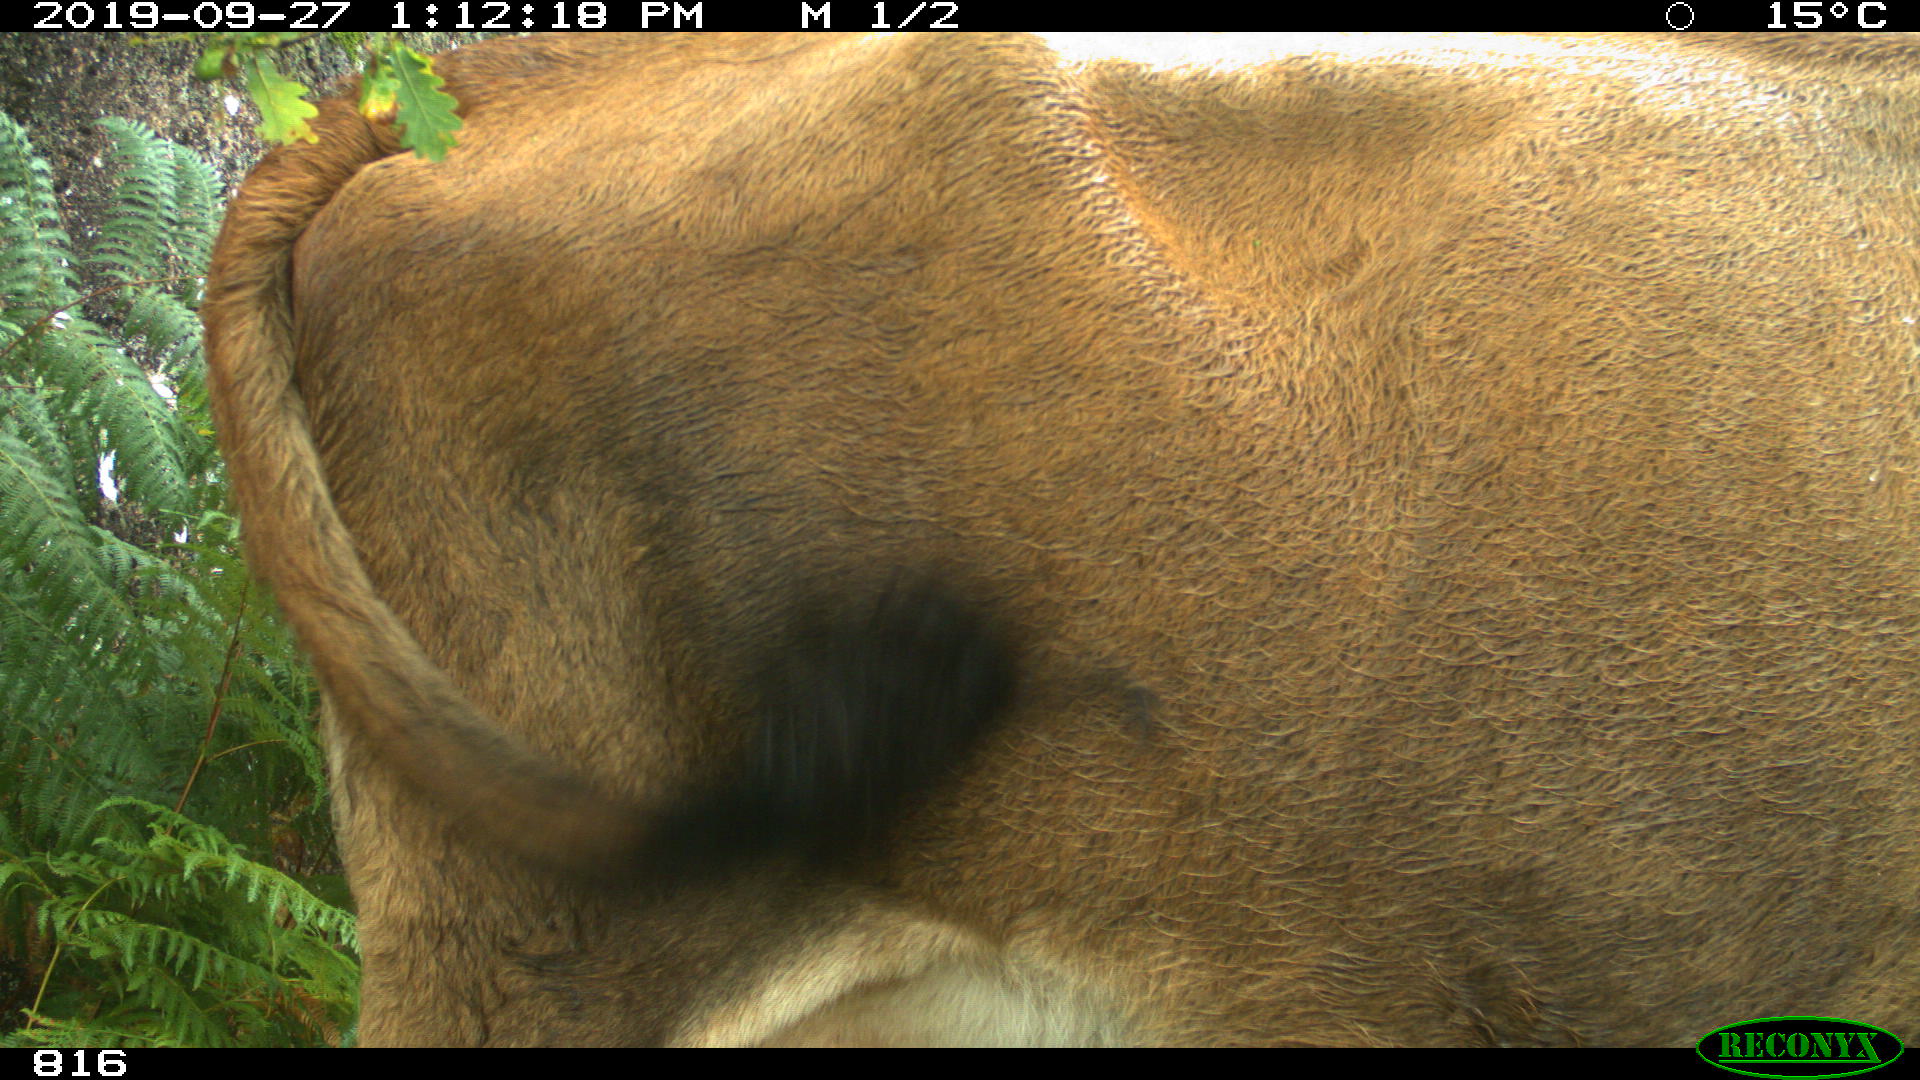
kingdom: Animalia
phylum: Chordata
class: Mammalia
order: Artiodactyla
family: Bovidae
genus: Bos
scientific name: Bos taurus
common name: Domesticated cattle
